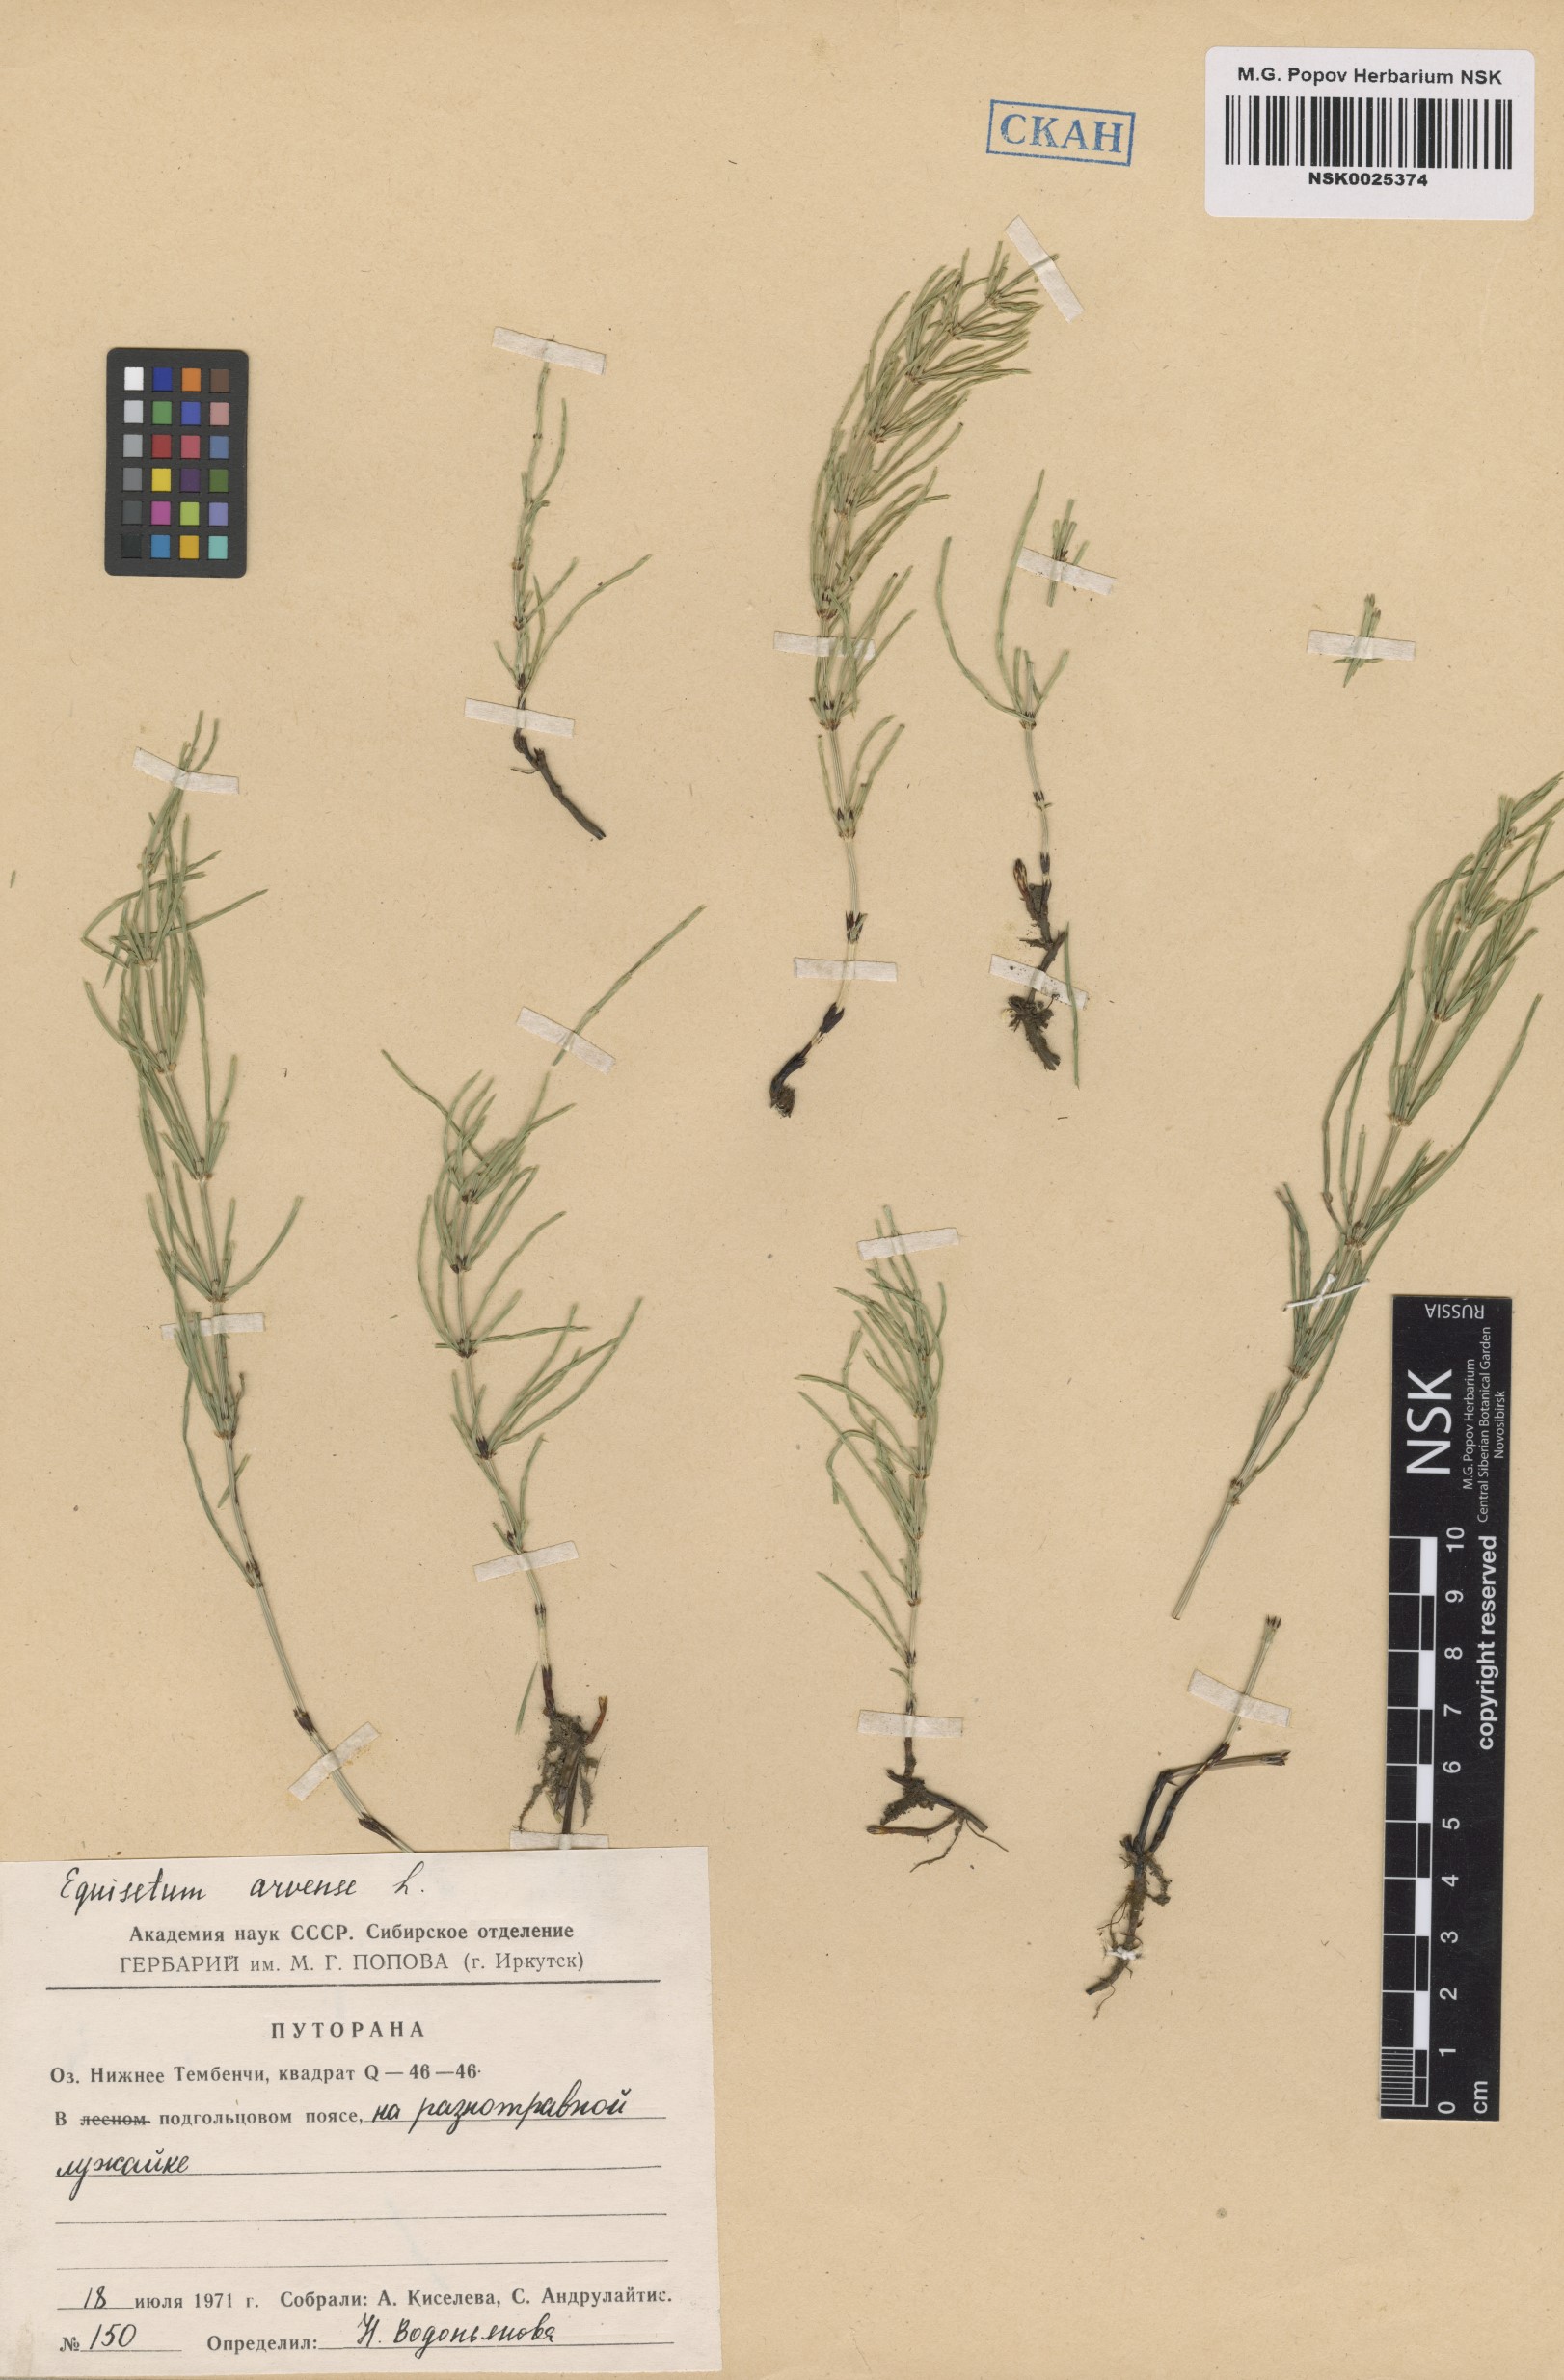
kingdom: Plantae
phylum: Tracheophyta
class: Polypodiopsida
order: Equisetales
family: Equisetaceae
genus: Equisetum
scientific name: Equisetum arvense
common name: Field horsetail
